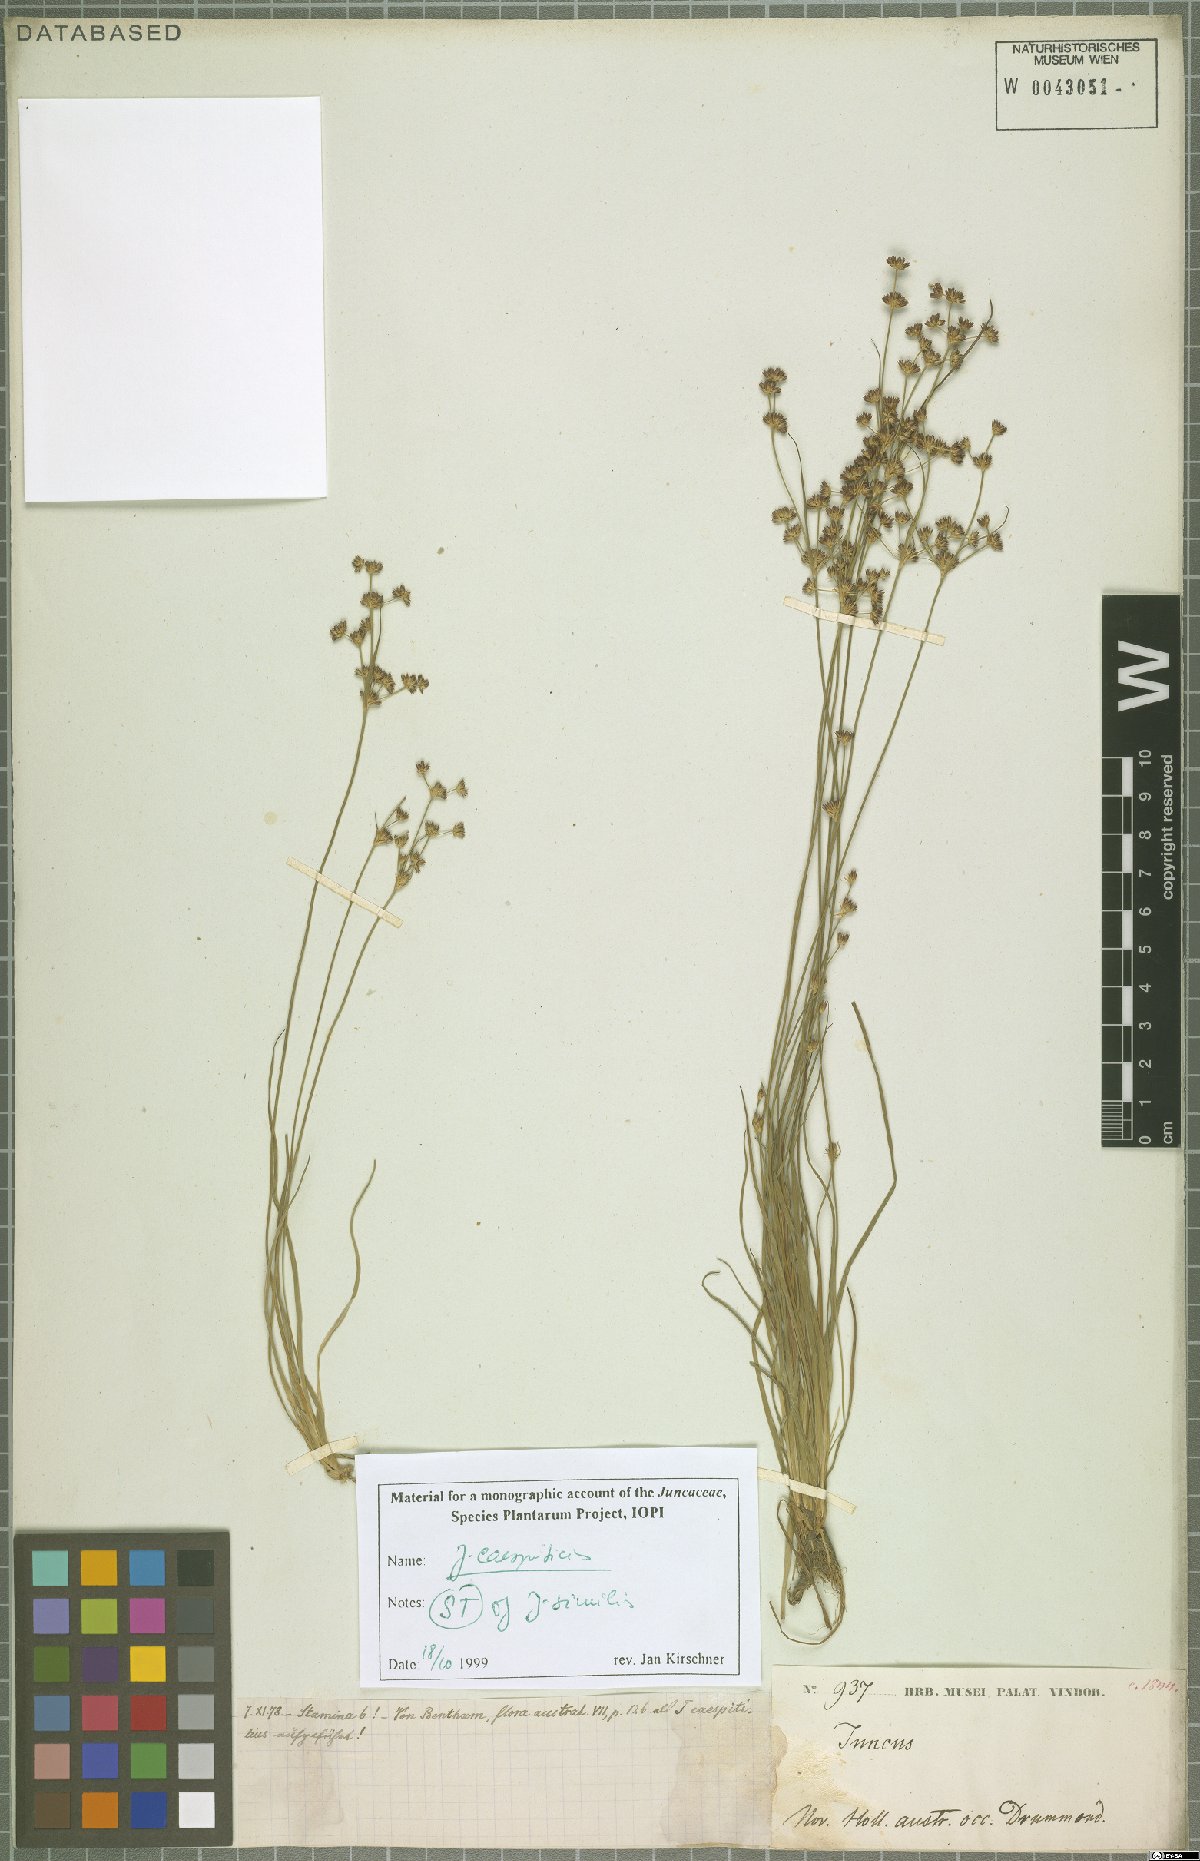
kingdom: Plantae
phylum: Tracheophyta
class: Liliopsida
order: Poales
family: Juncaceae
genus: Juncus
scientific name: Juncus caespiticius
